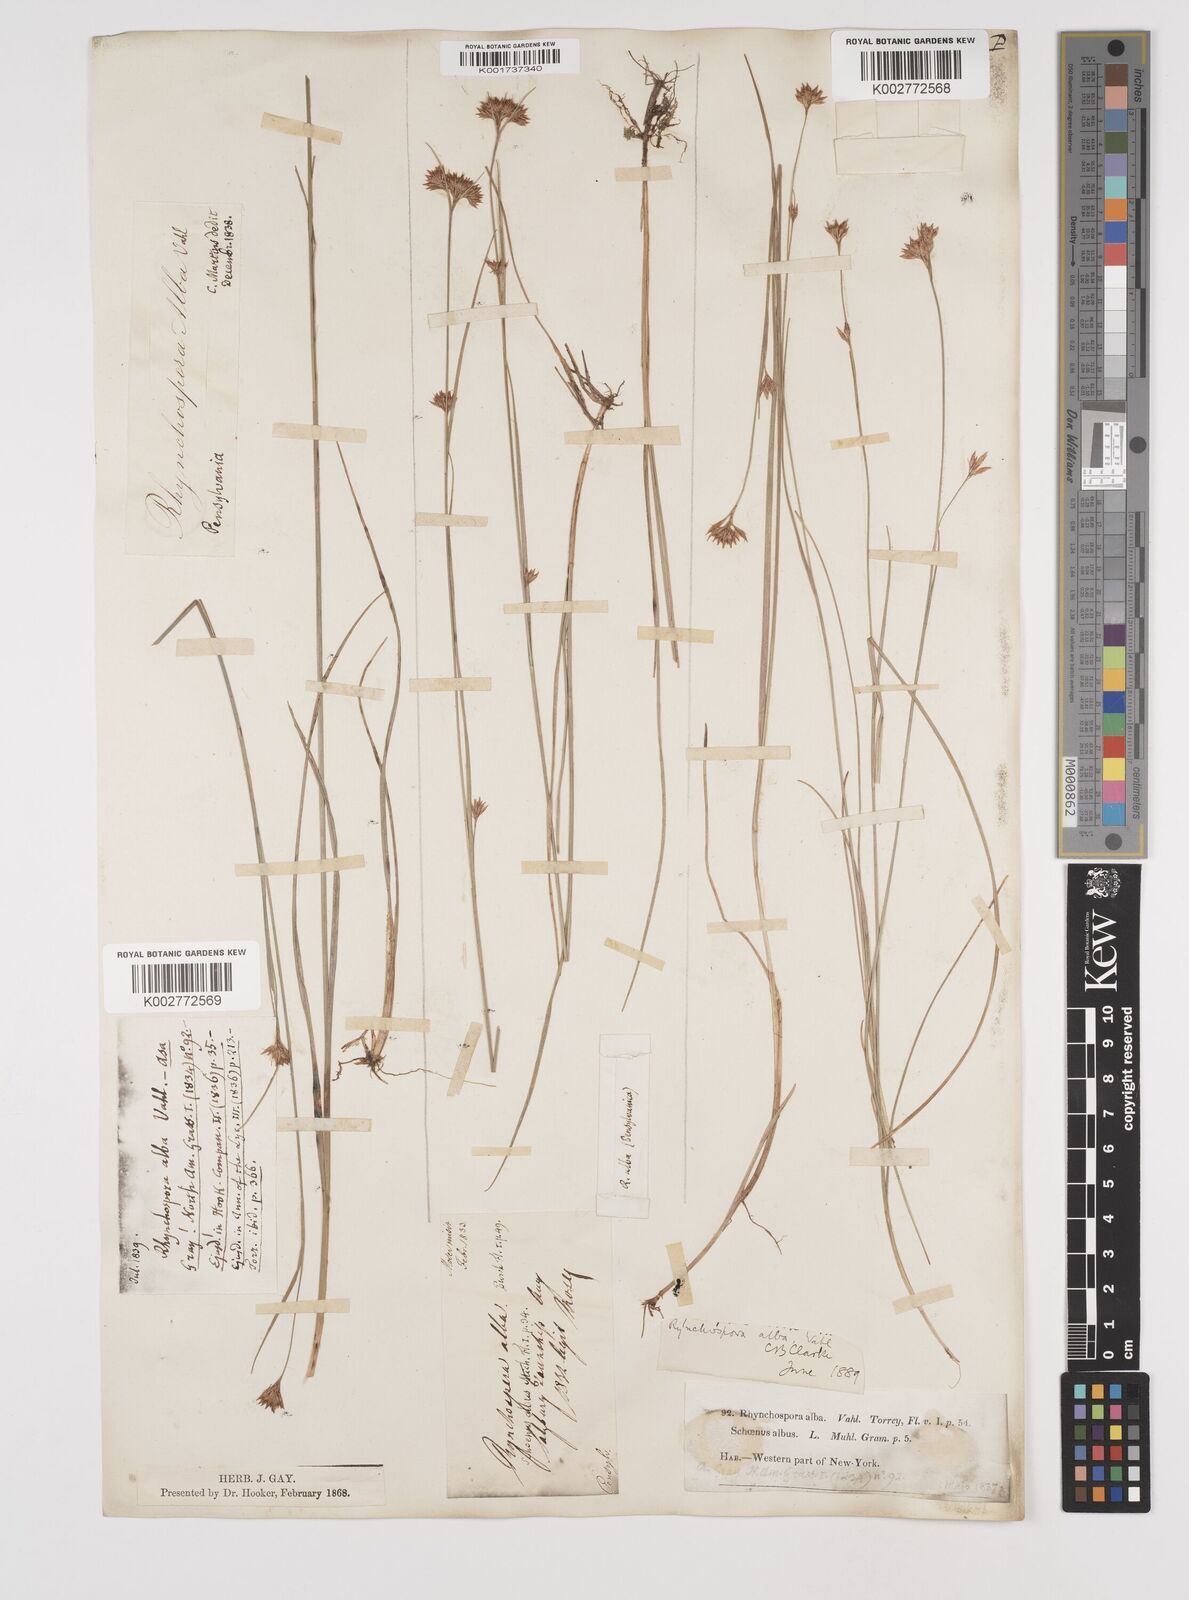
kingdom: Plantae
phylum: Tracheophyta
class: Liliopsida
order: Poales
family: Cyperaceae
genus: Rhynchospora
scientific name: Rhynchospora alba
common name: White beak-sedge
